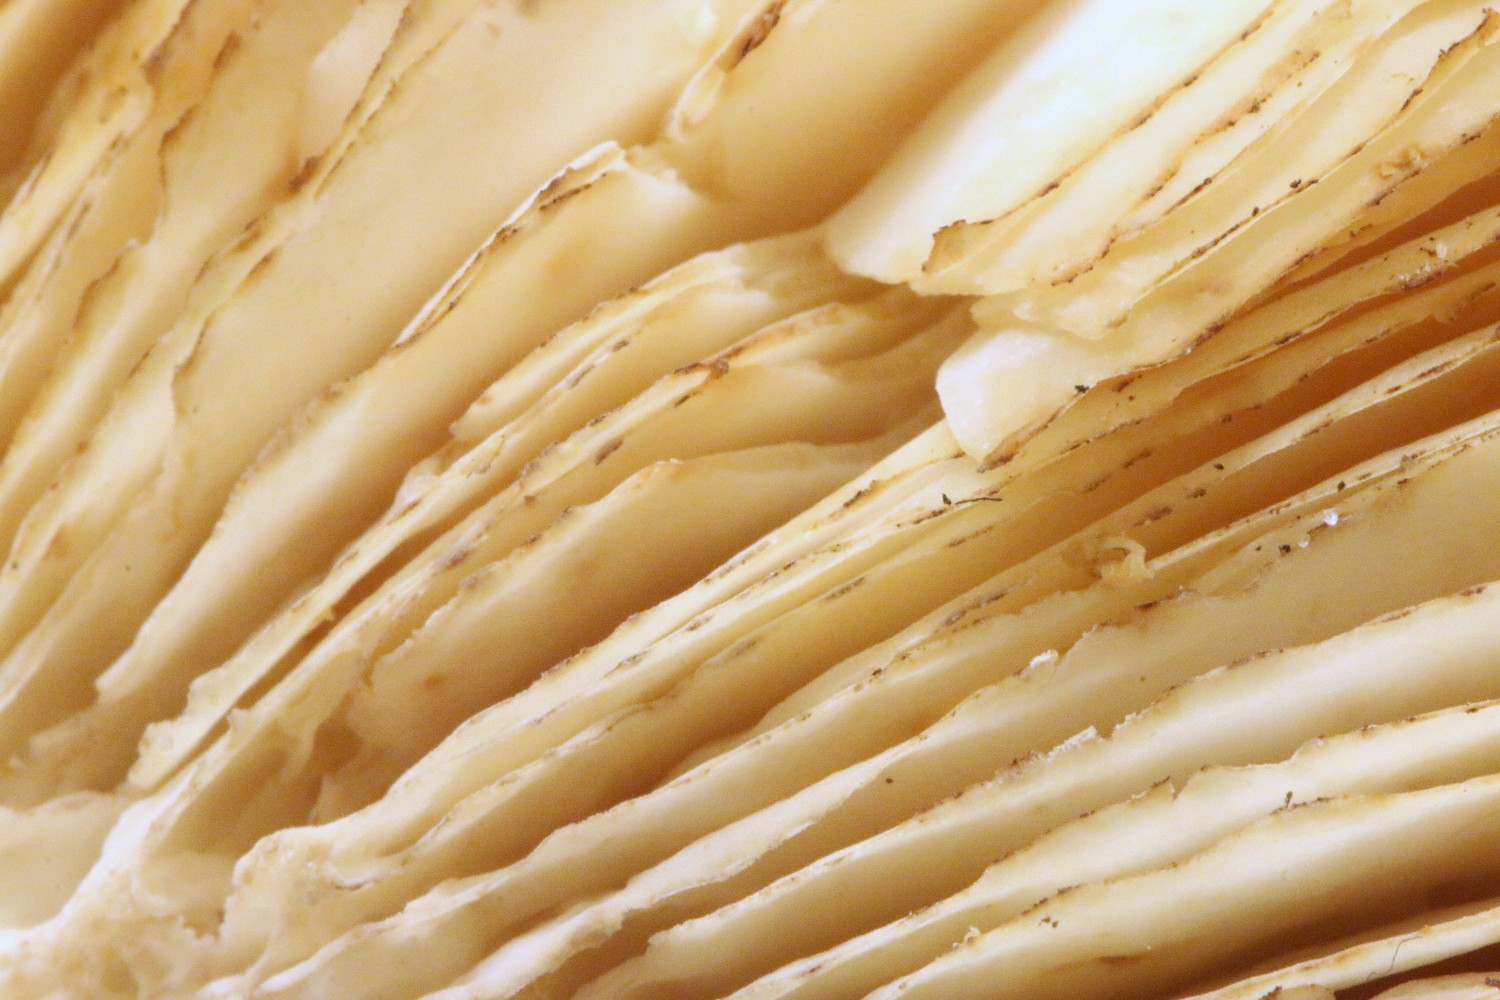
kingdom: Fungi
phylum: Basidiomycota
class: Agaricomycetes
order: Russulales
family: Russulaceae
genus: Russula
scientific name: Russula illota
